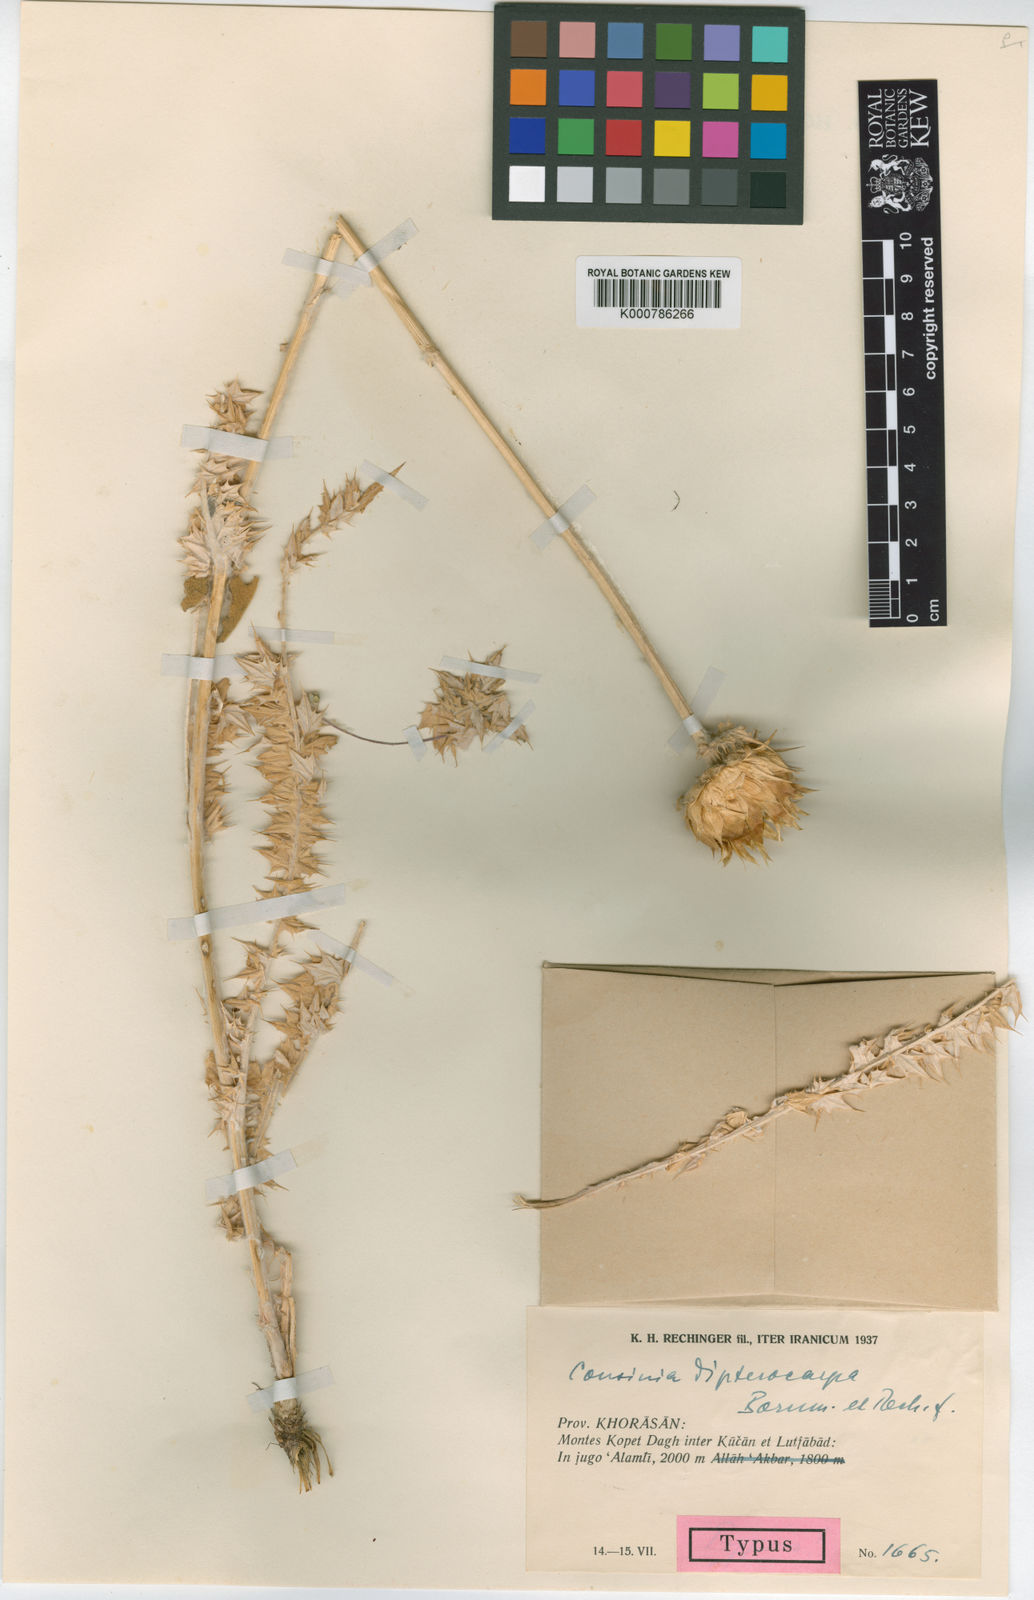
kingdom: Plantae
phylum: Tracheophyta
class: Magnoliopsida
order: Asterales
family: Asteraceae
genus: Cousinia
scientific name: Cousinia dipterocarpa
